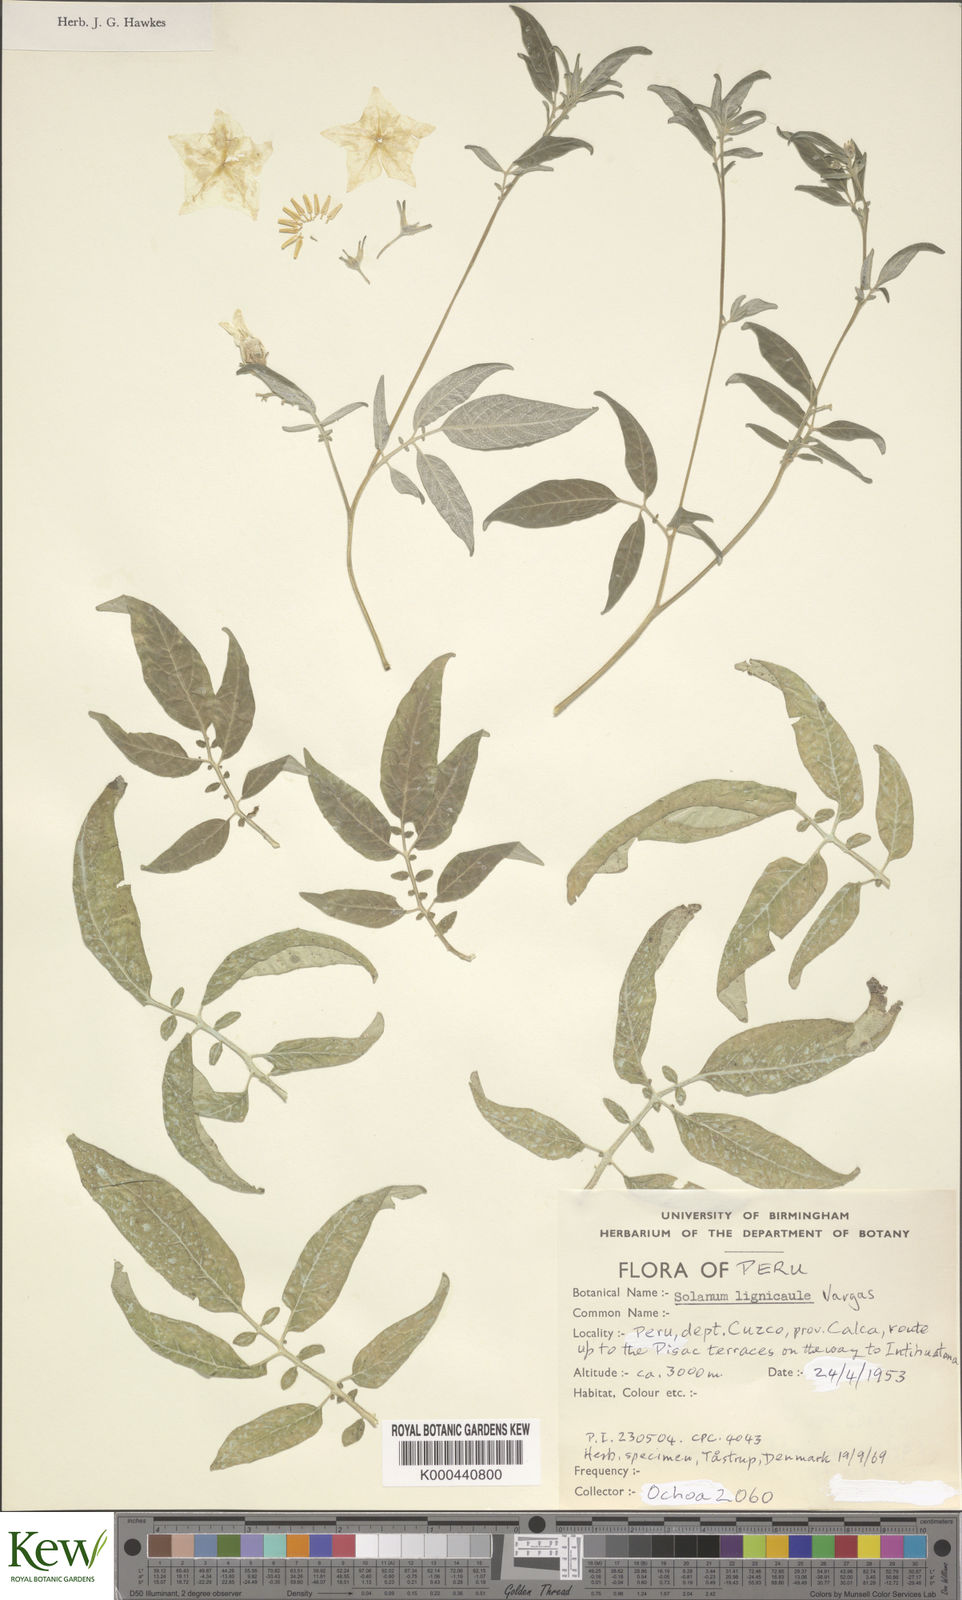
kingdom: Plantae
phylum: Tracheophyta
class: Magnoliopsida
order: Solanales
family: Solanaceae
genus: Solanum
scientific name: Solanum lignicaule
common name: Fox potato
